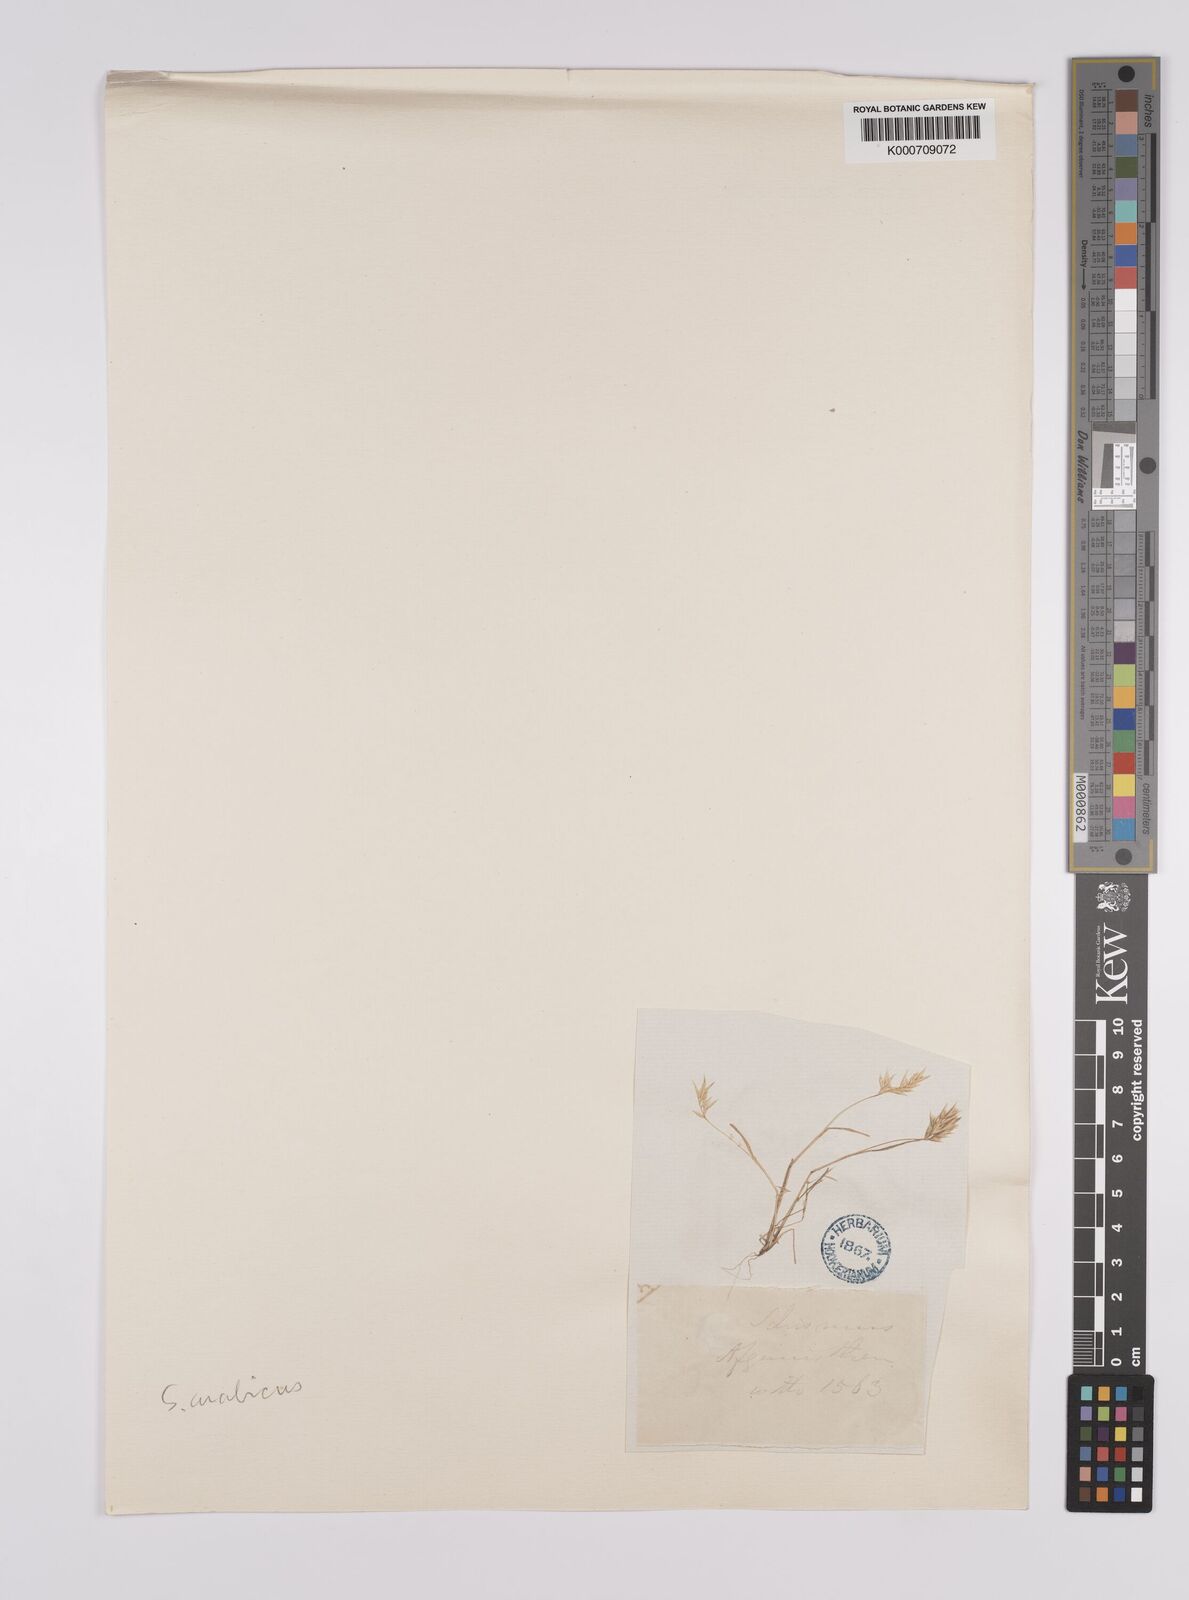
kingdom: Plantae
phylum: Tracheophyta
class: Liliopsida
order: Poales
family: Poaceae
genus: Schismus
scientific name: Schismus arabicus
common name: Arabian schismus
